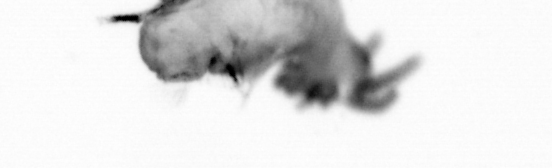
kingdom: Animalia
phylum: Annelida
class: Polychaeta
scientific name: Polychaeta
